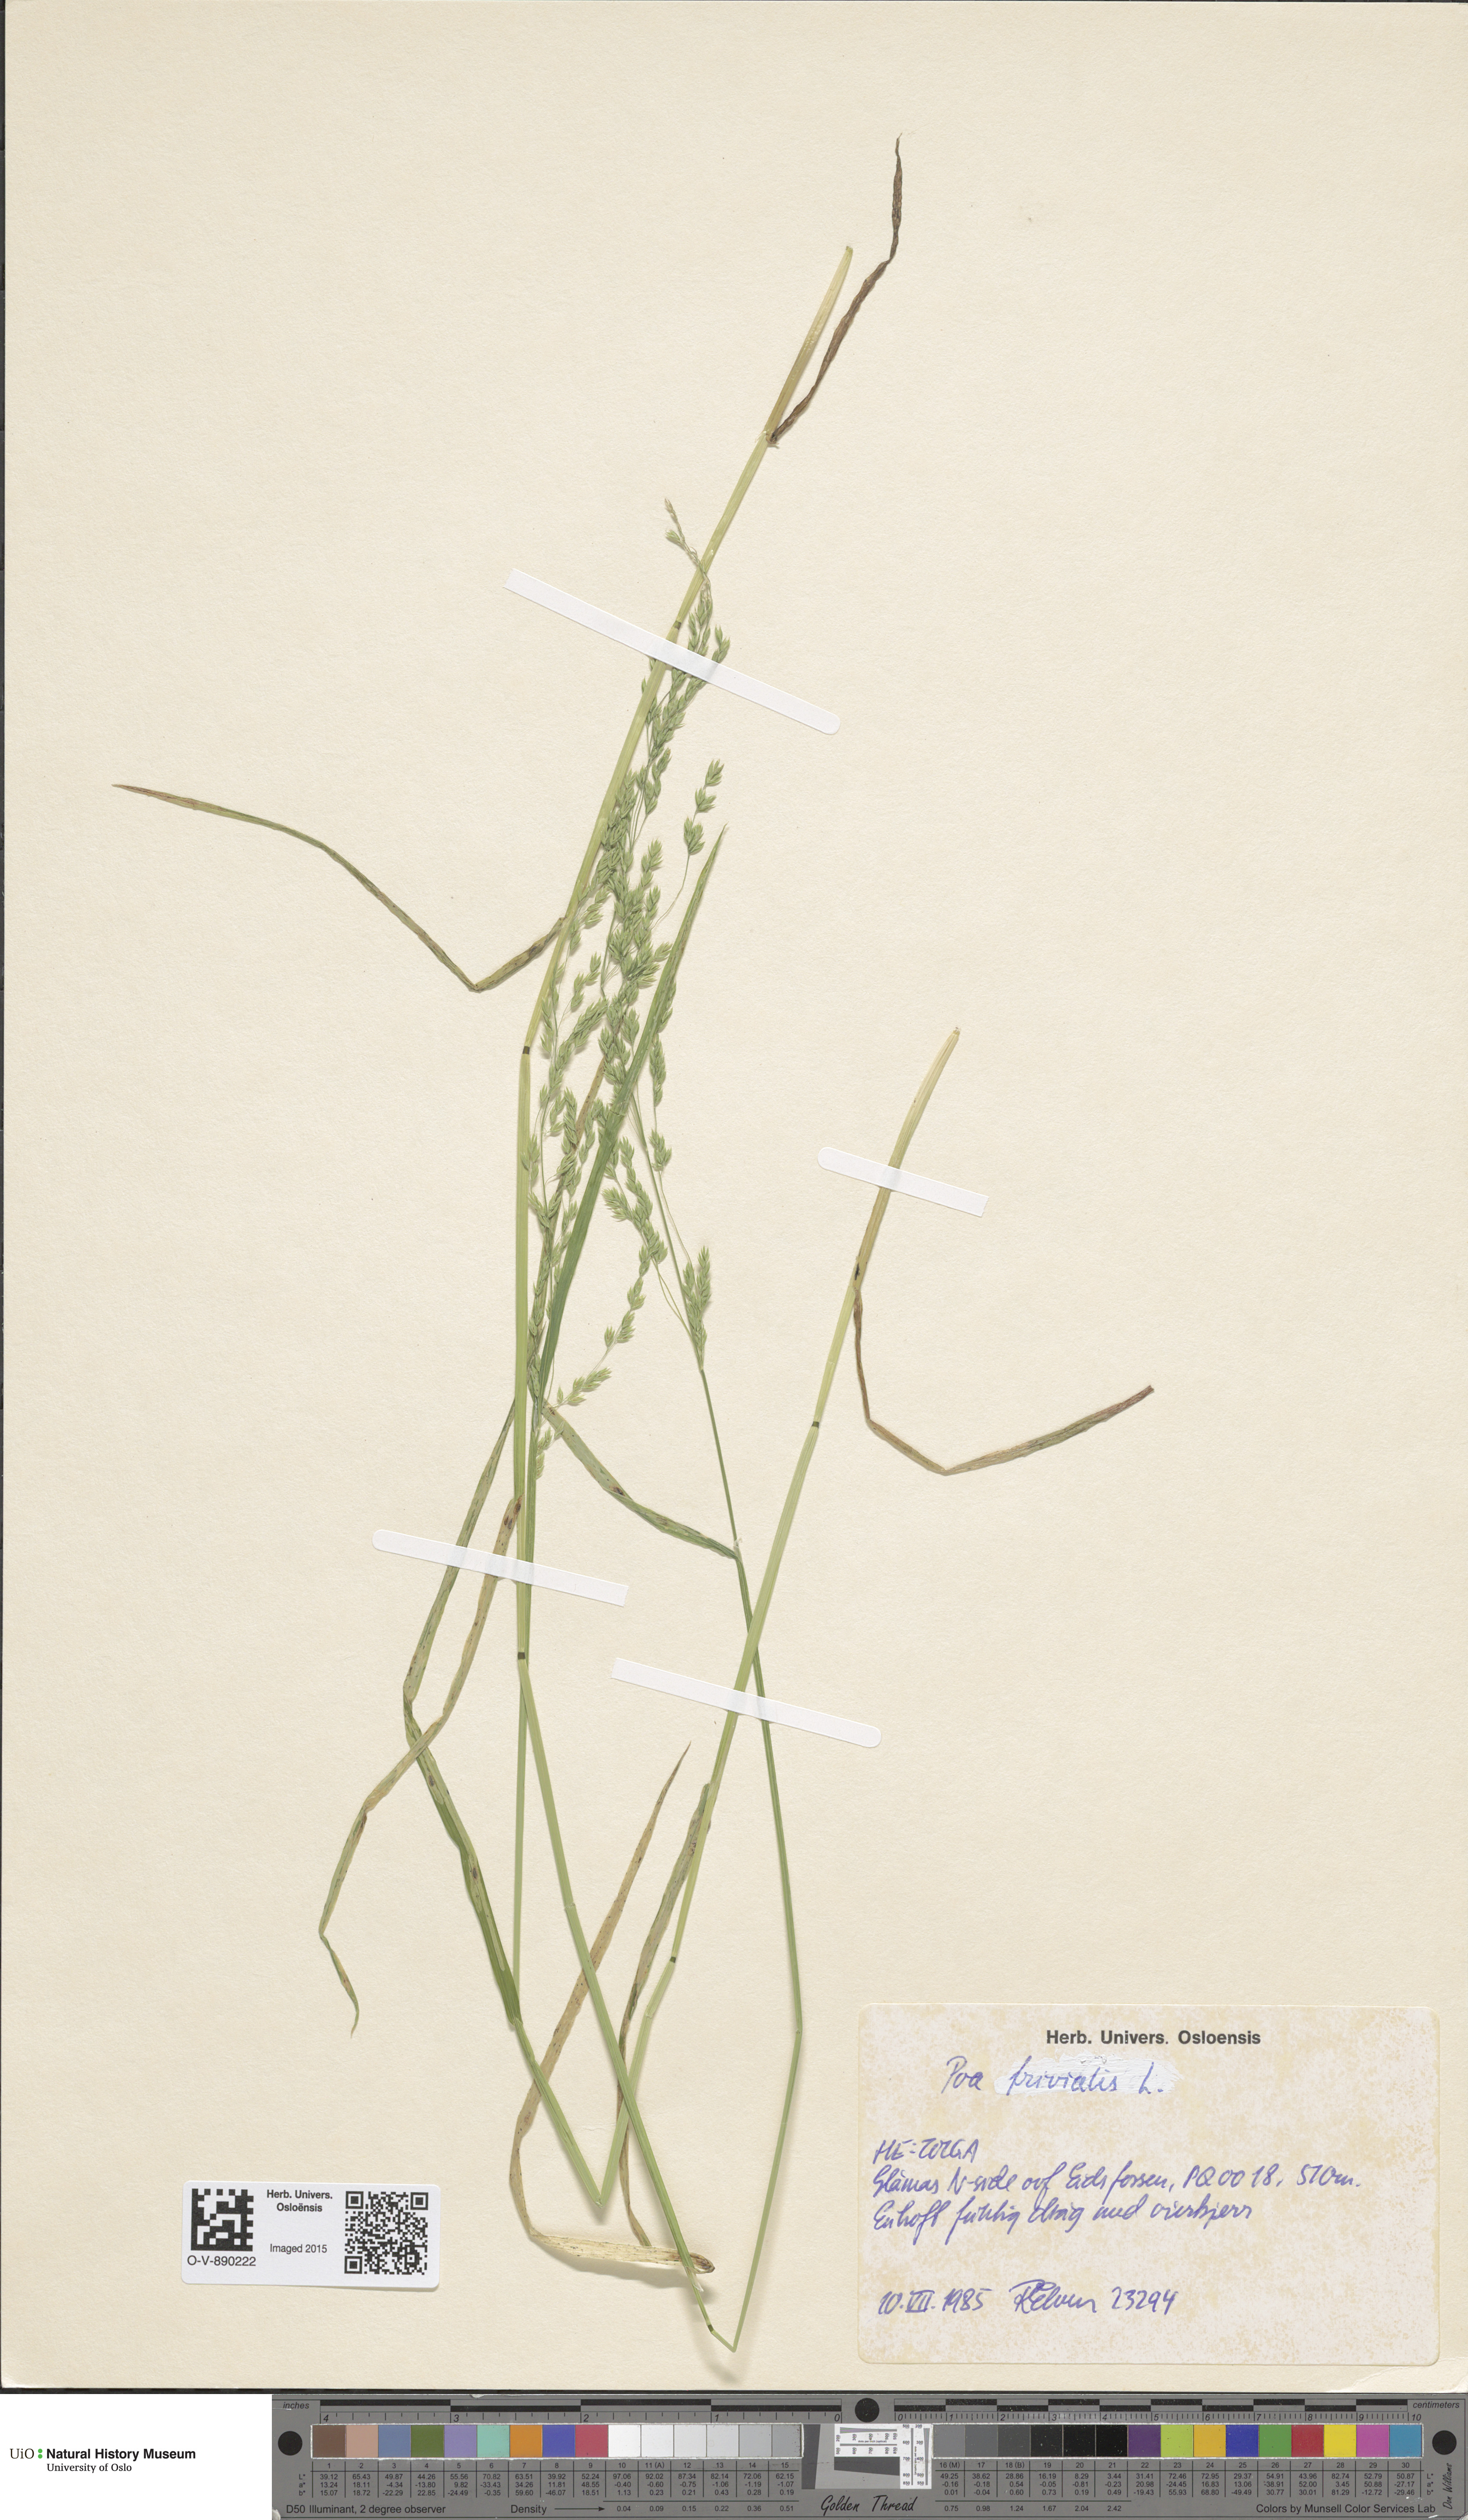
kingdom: Plantae
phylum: Tracheophyta
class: Liliopsida
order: Poales
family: Poaceae
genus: Poa
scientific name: Poa trivialis
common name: Rough bluegrass
